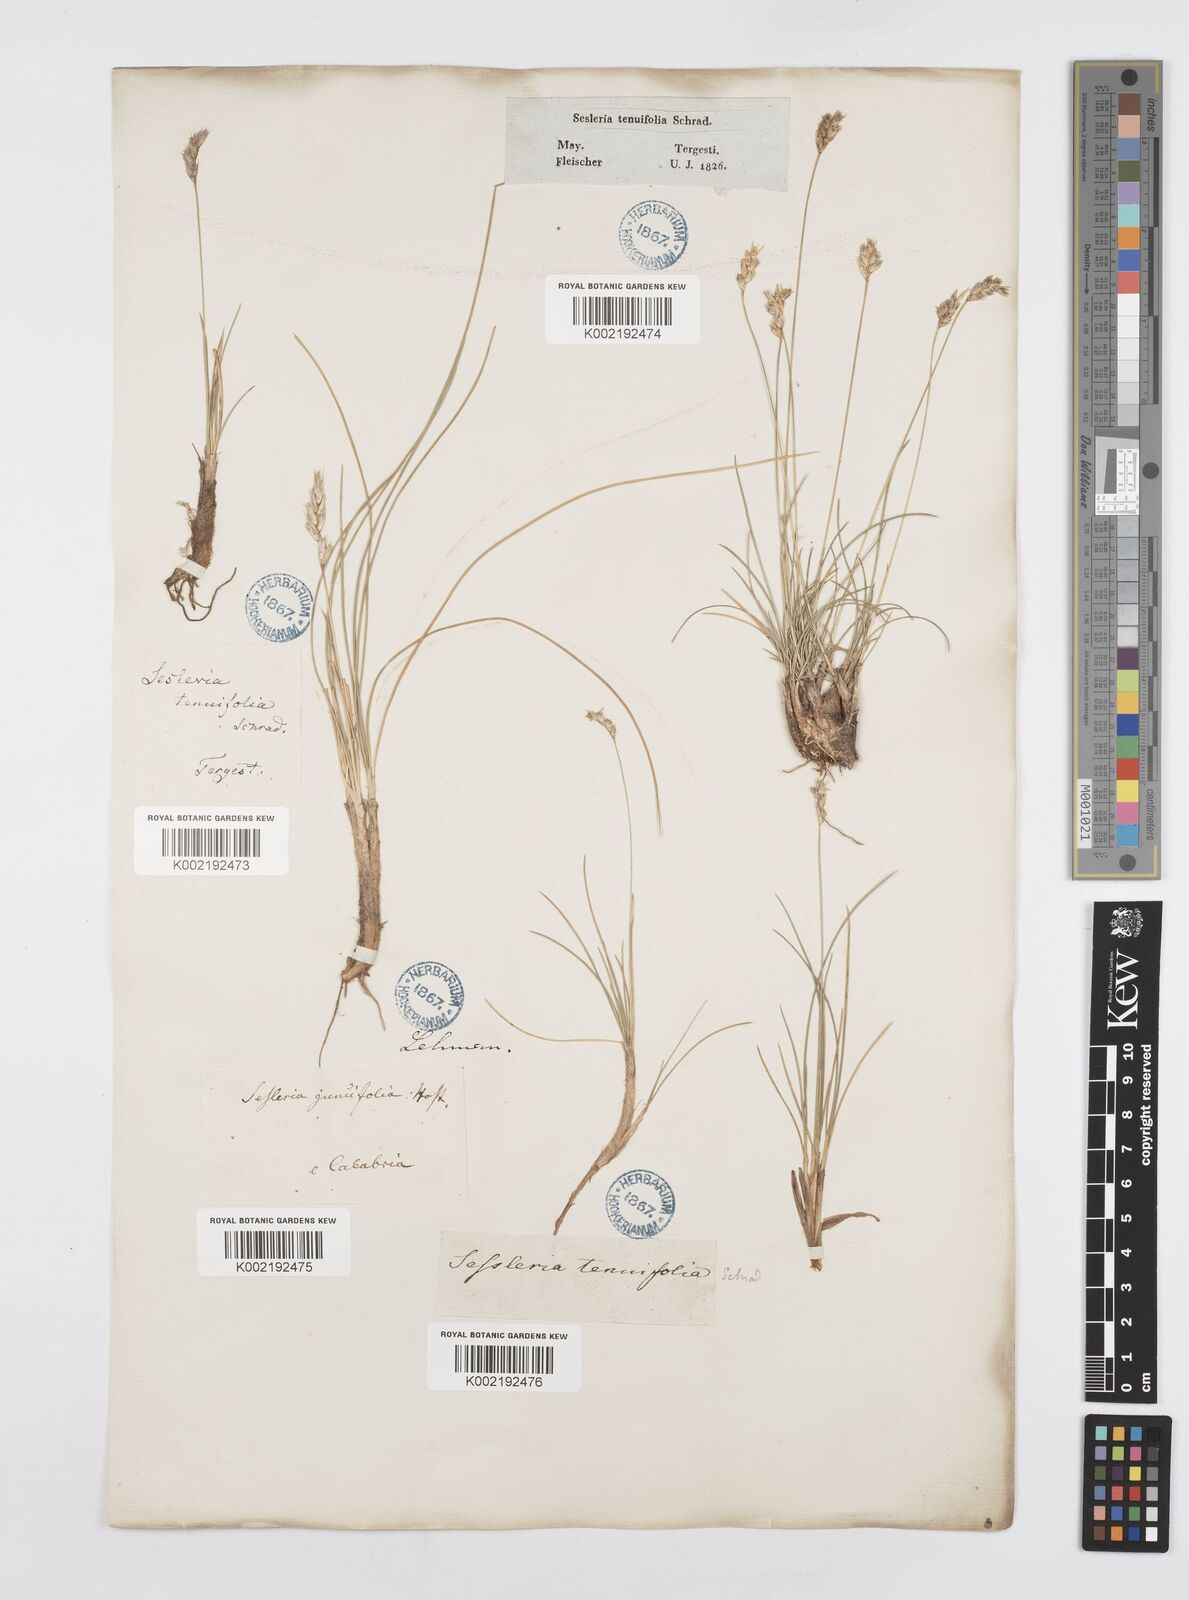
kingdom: Plantae
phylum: Tracheophyta
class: Liliopsida
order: Poales
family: Poaceae
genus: Sesleria
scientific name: Sesleria juncifolia
